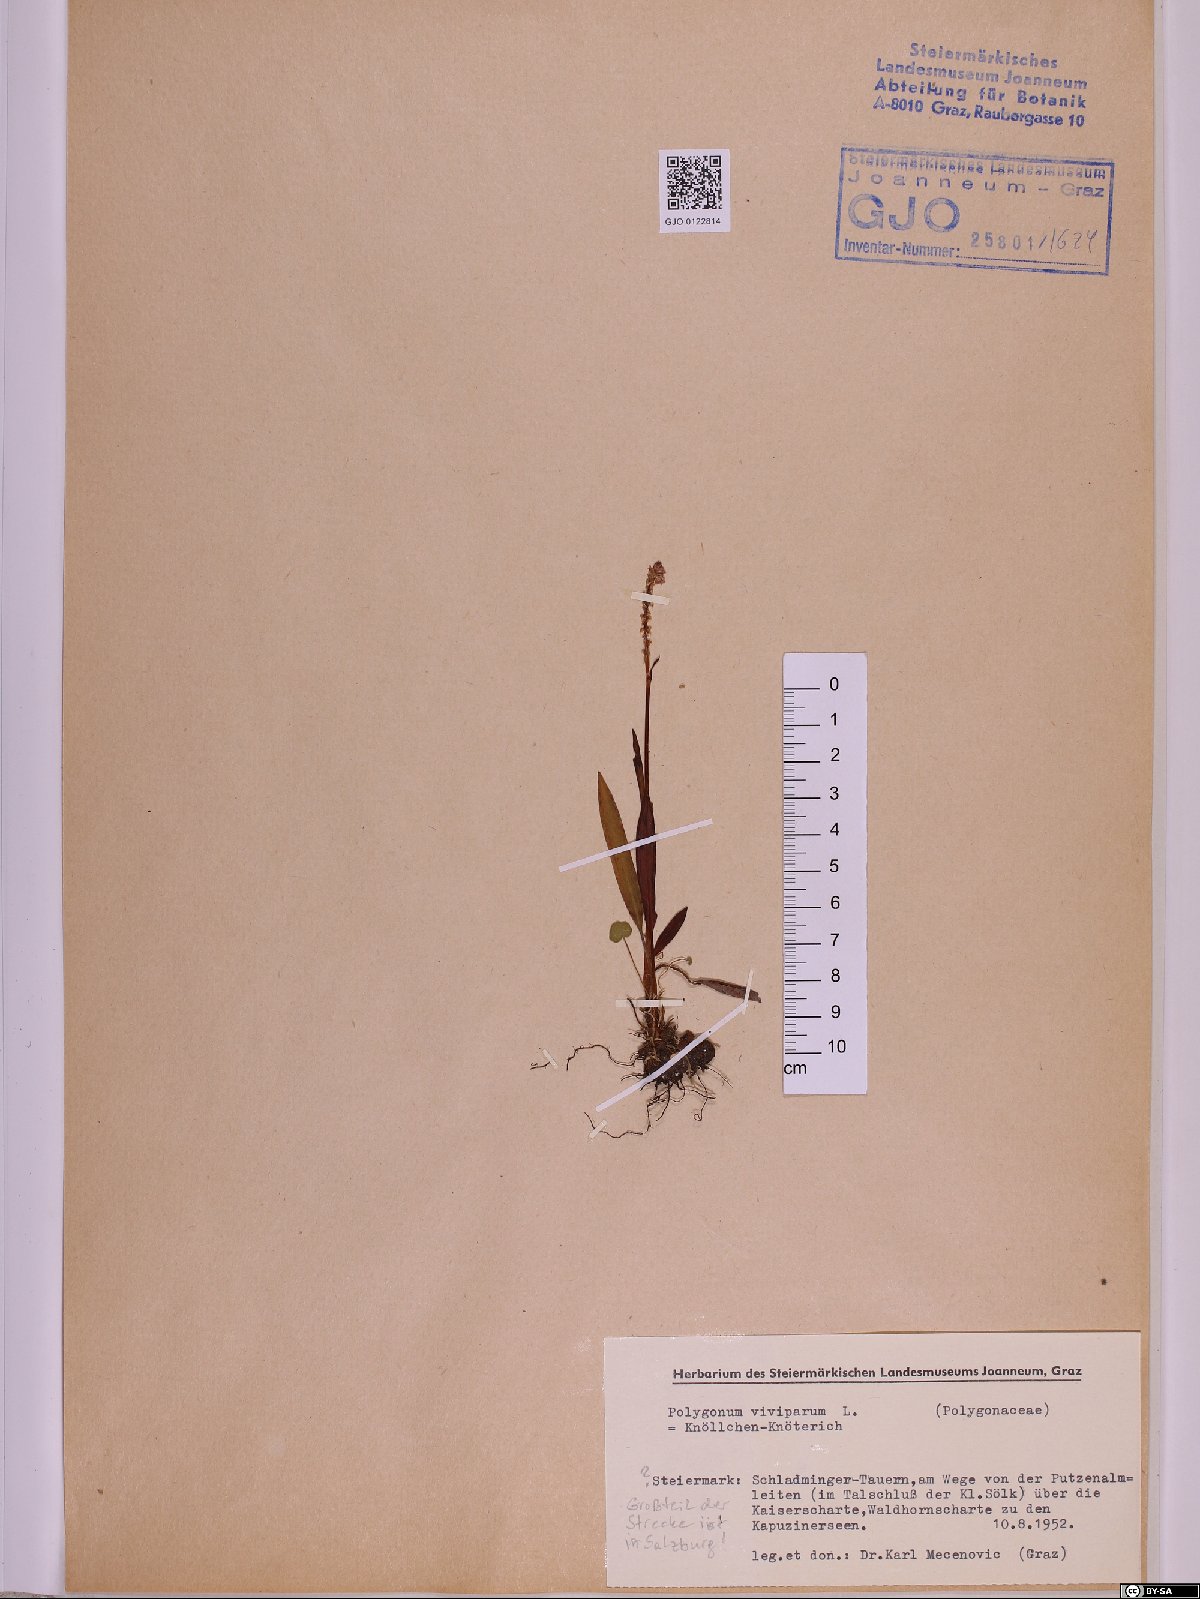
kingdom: Plantae
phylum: Tracheophyta
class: Magnoliopsida
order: Caryophyllales
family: Polygonaceae
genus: Bistorta
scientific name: Bistorta vivipara
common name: Alpine bistort
